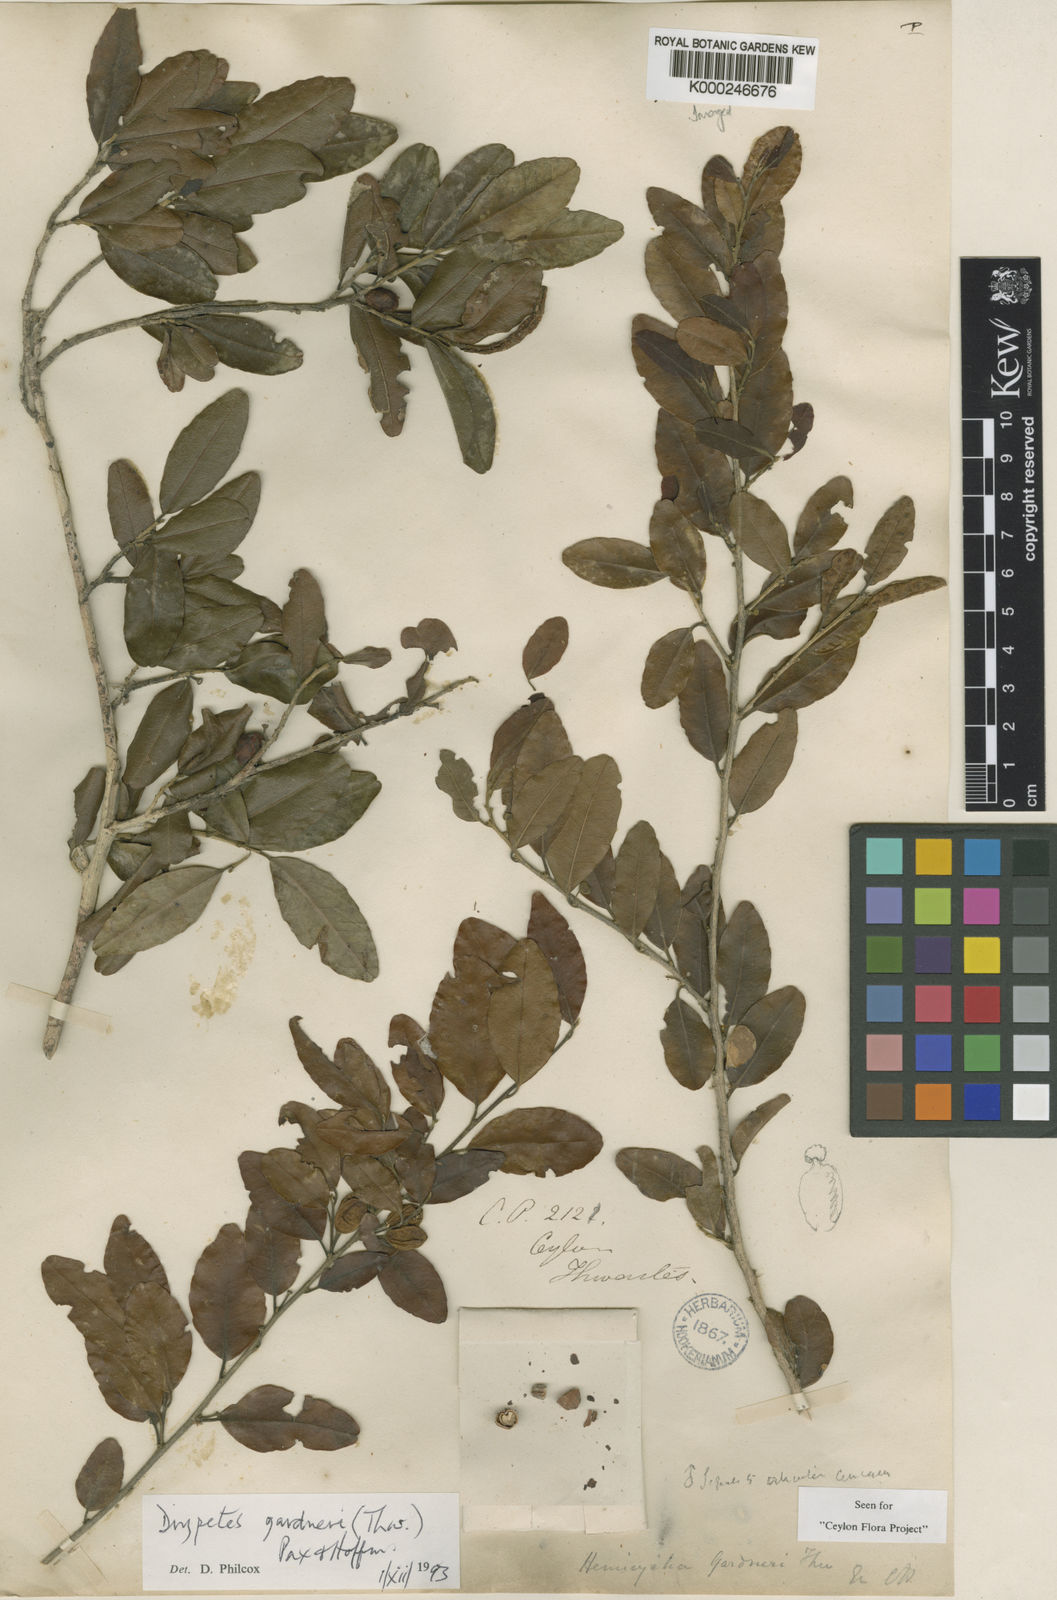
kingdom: Plantae
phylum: Tracheophyta
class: Magnoliopsida
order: Malpighiales
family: Putranjivaceae
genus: Drypetes
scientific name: Drypetes gardneri
